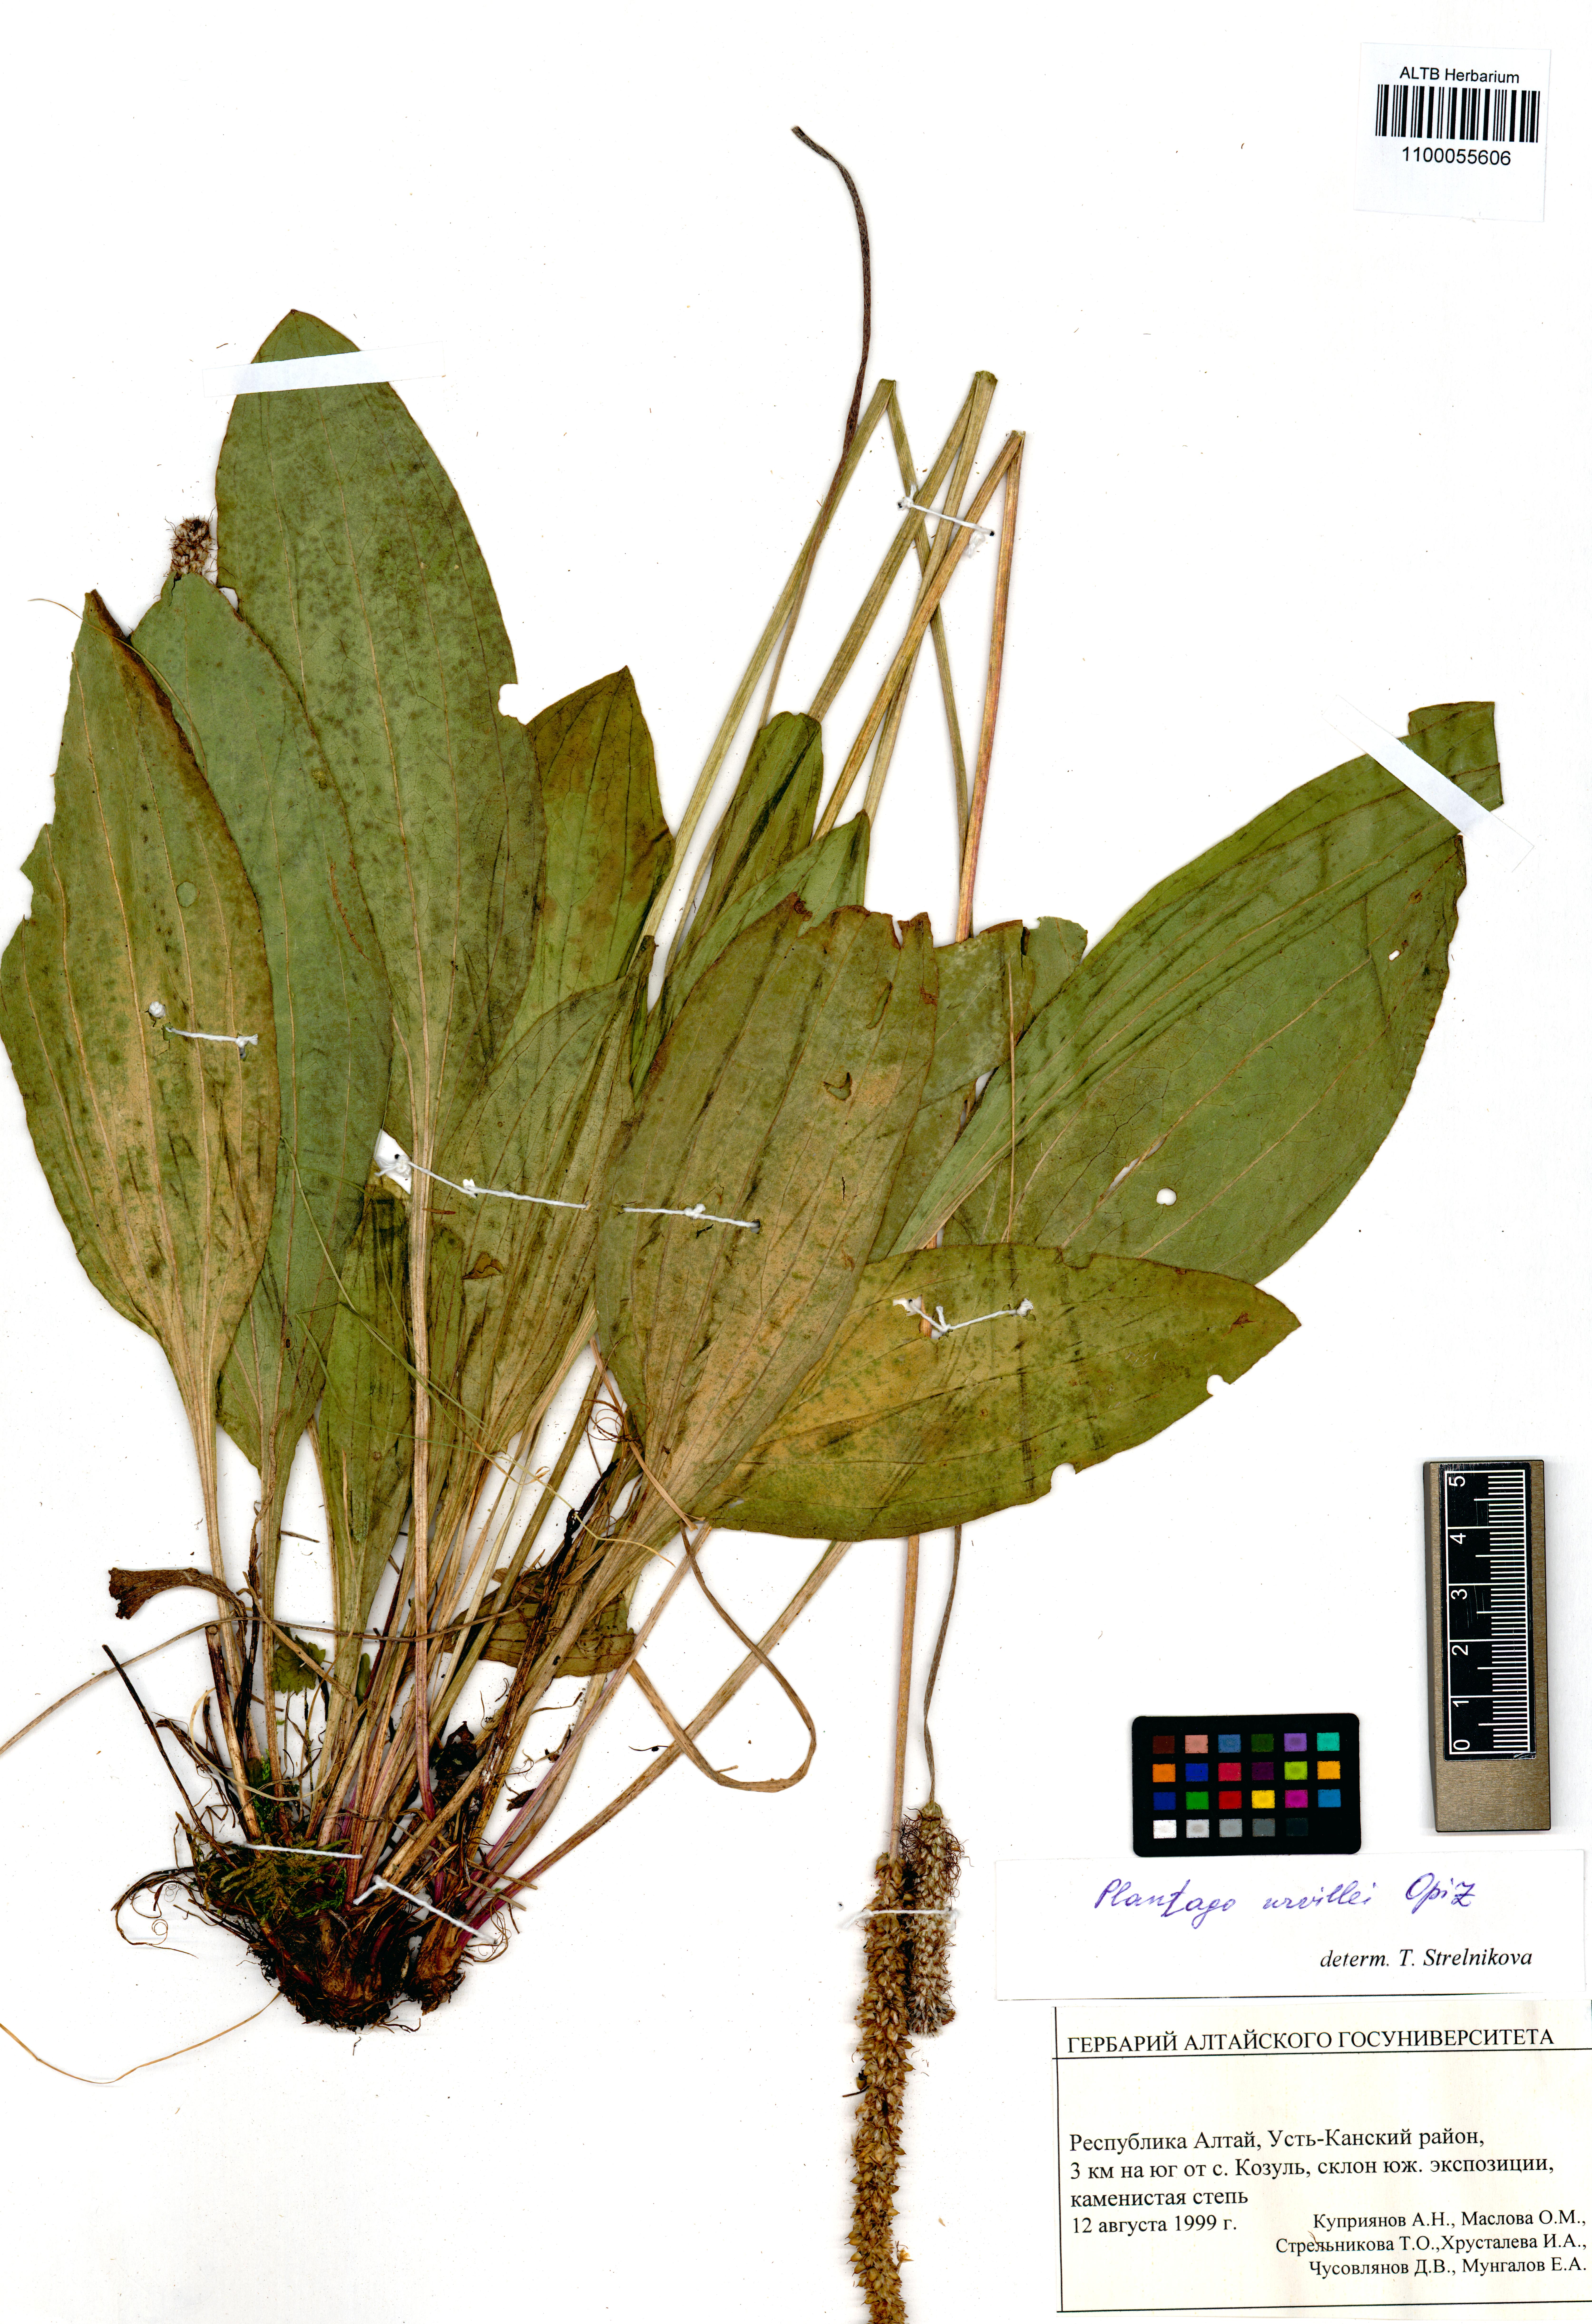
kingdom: Plantae
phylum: Tracheophyta
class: Magnoliopsida
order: Lamiales
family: Plantaginaceae
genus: Plantago
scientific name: Plantago urvillei
